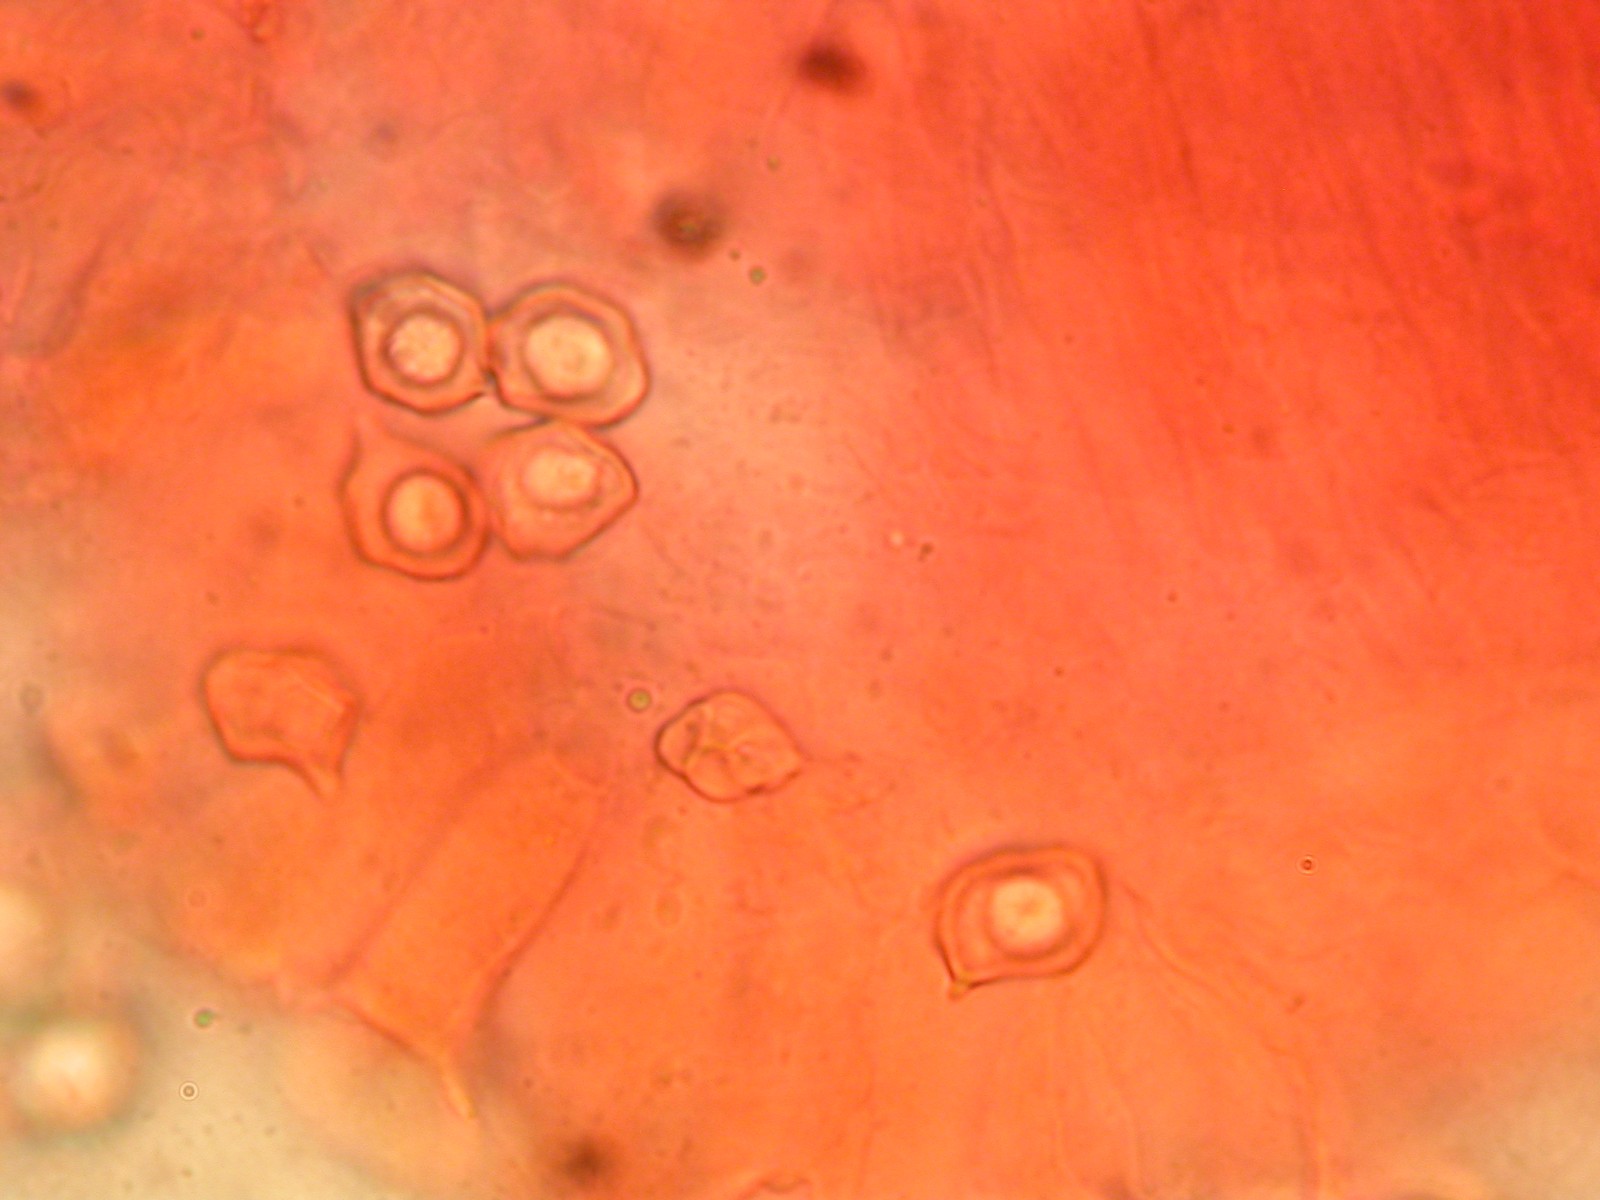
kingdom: Fungi
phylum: Basidiomycota
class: Agaricomycetes
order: Agaricales
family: Entolomataceae
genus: Entoloma
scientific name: Entoloma
